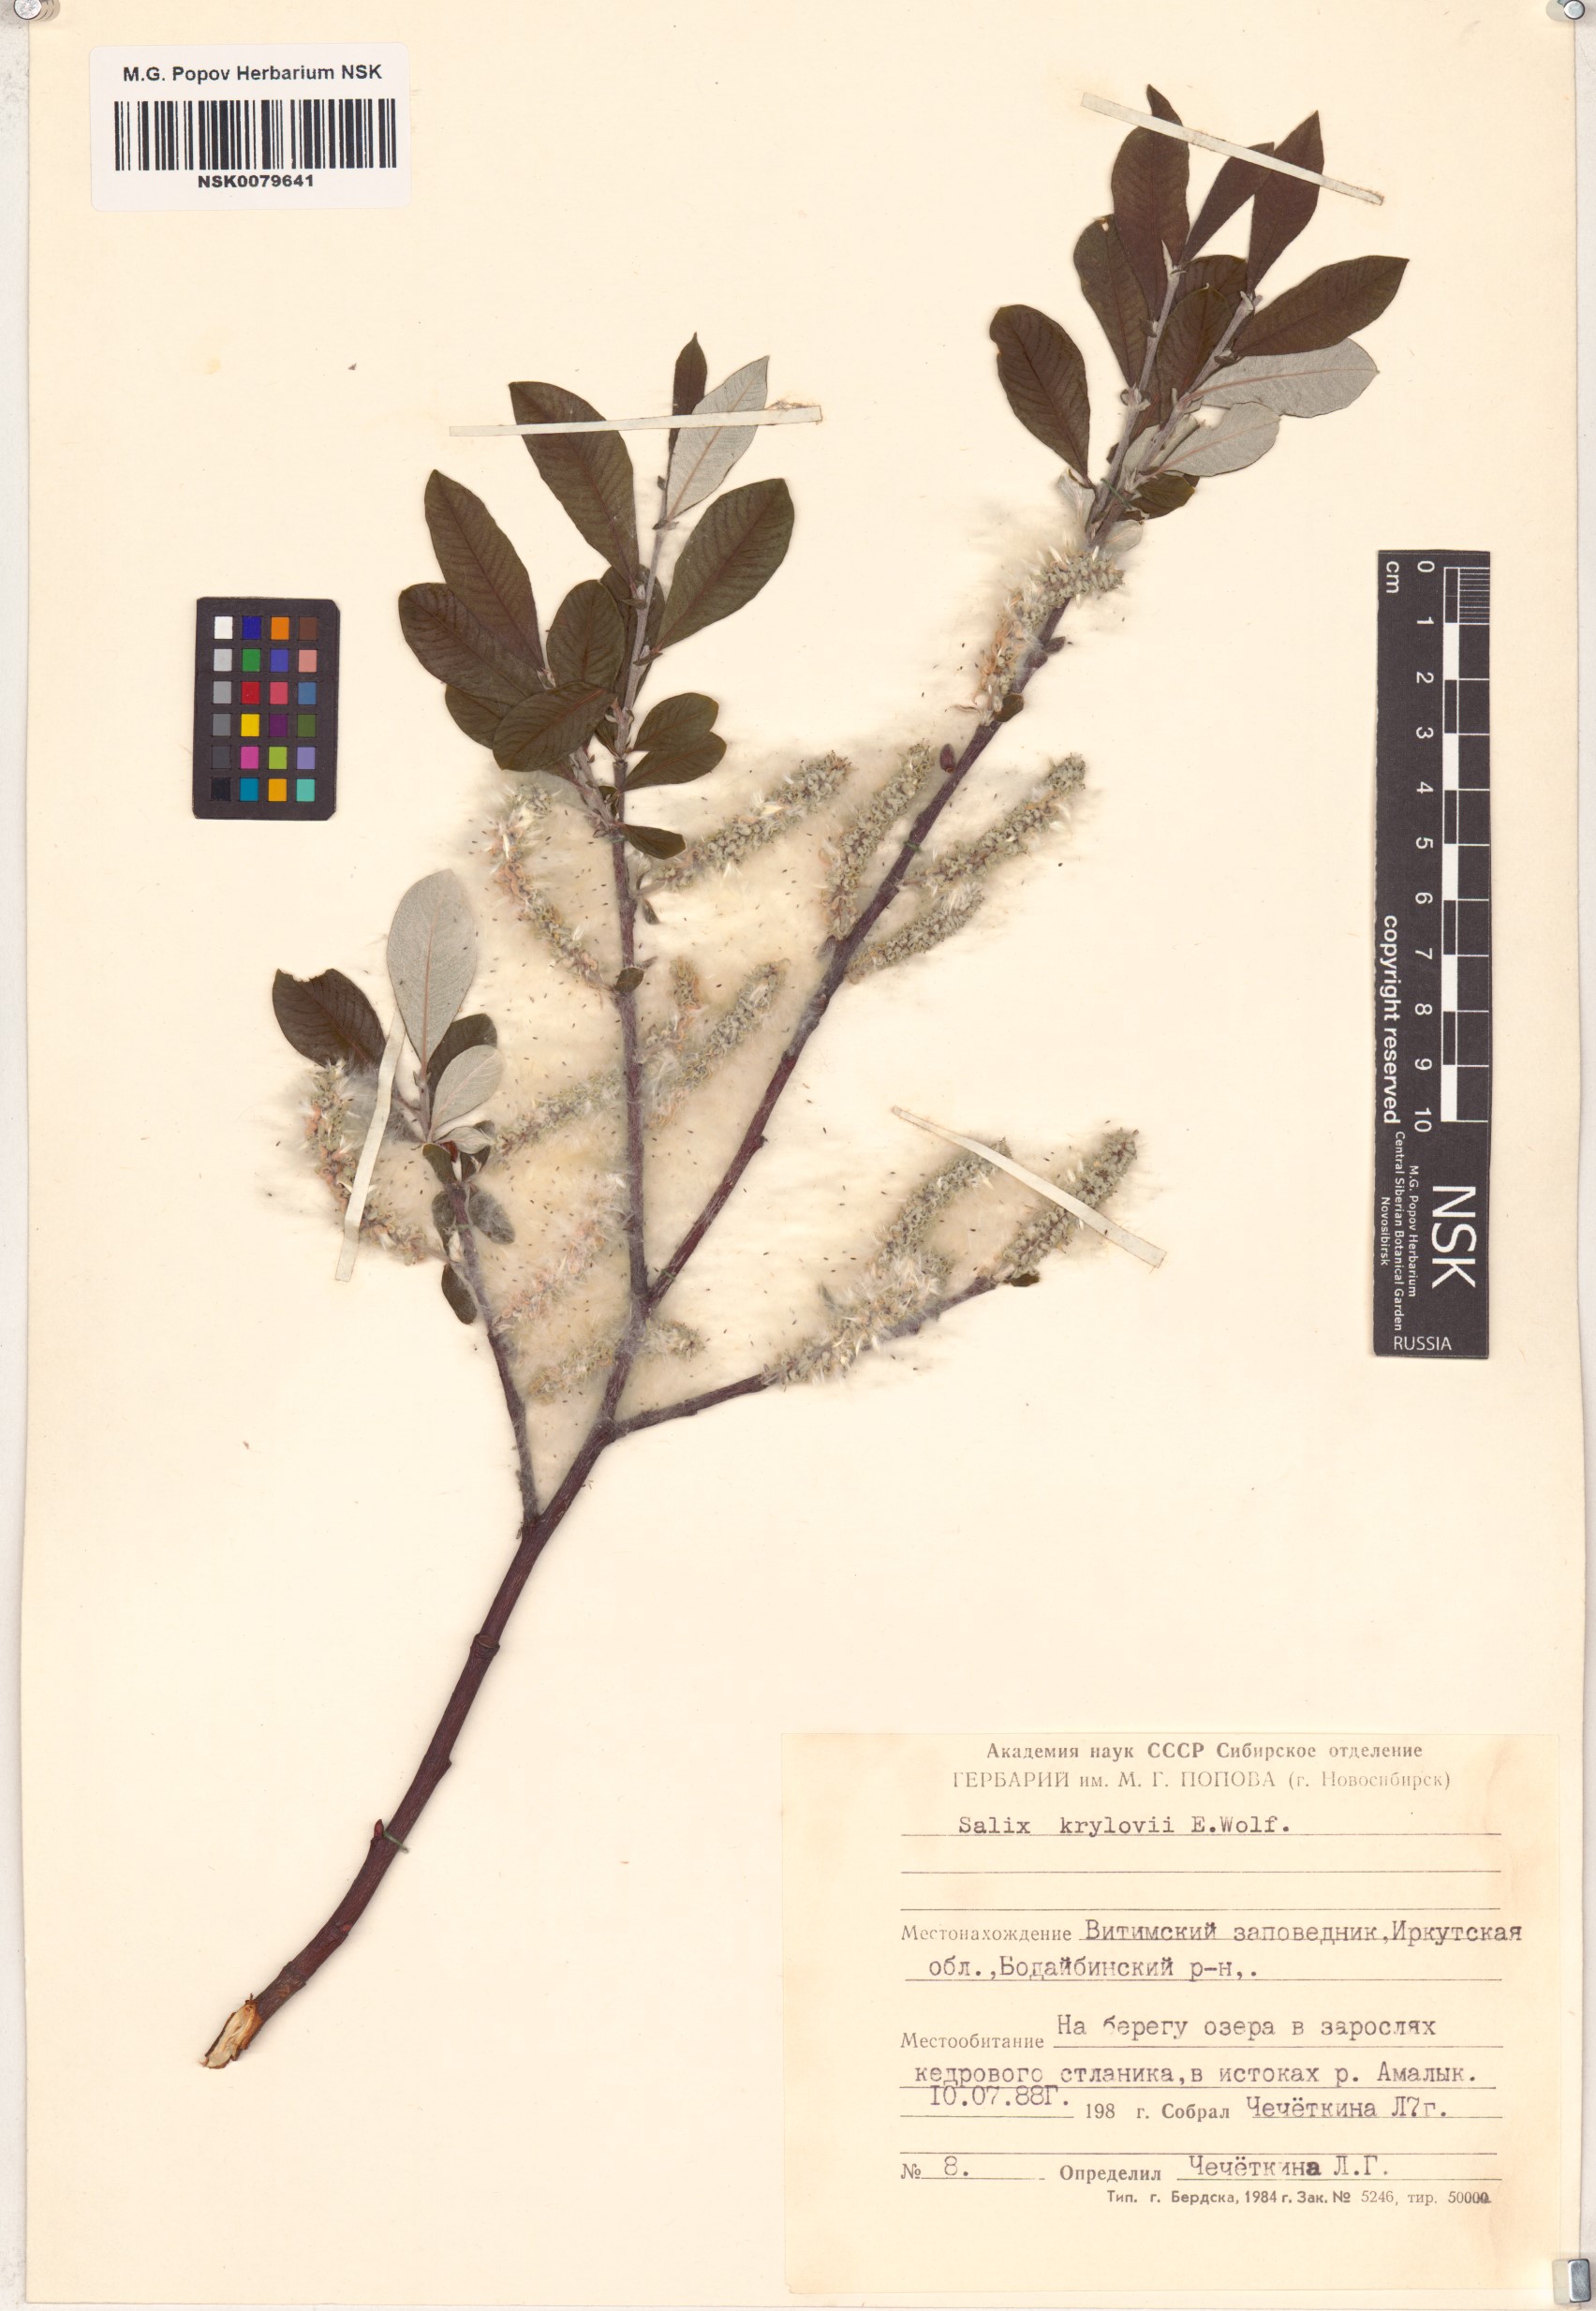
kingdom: Plantae
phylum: Tracheophyta
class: Magnoliopsida
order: Malpighiales
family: Salicaceae
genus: Salix
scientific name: Salix krylovii
